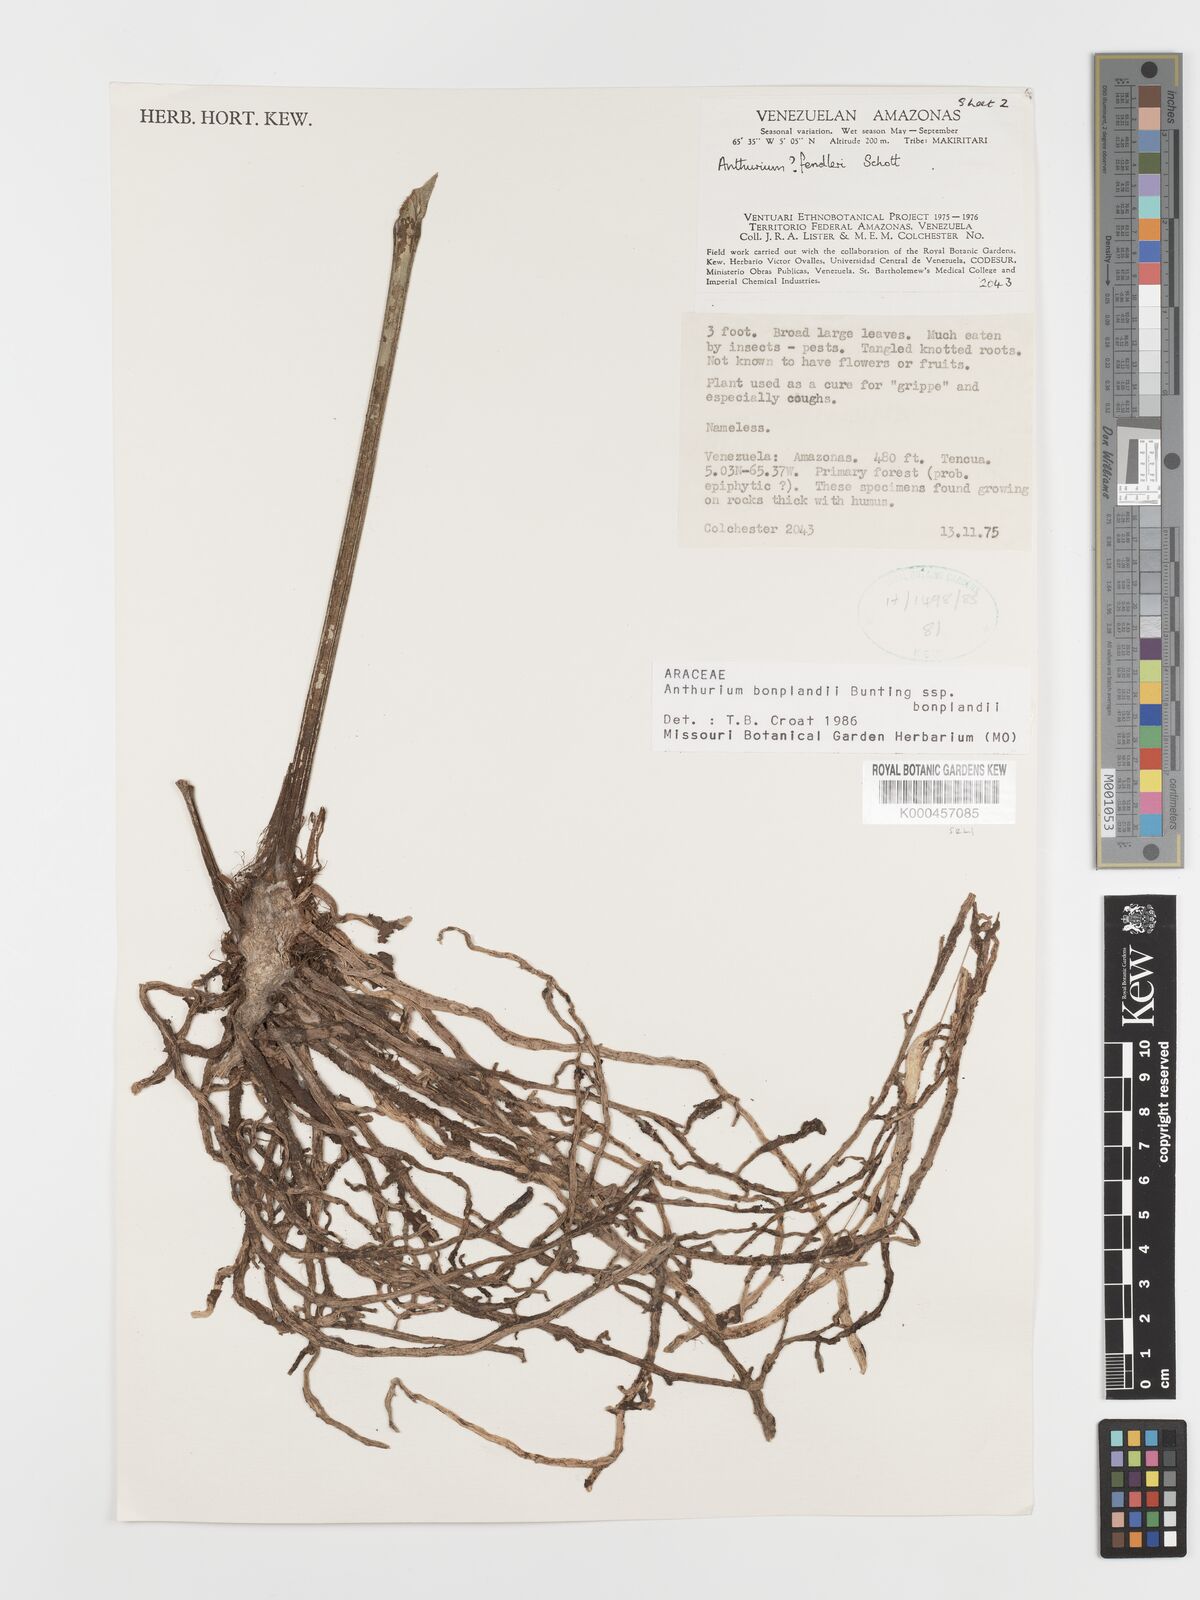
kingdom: Plantae
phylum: Tracheophyta
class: Liliopsida
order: Alismatales
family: Araceae
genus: Anthurium
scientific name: Anthurium bonplandii
